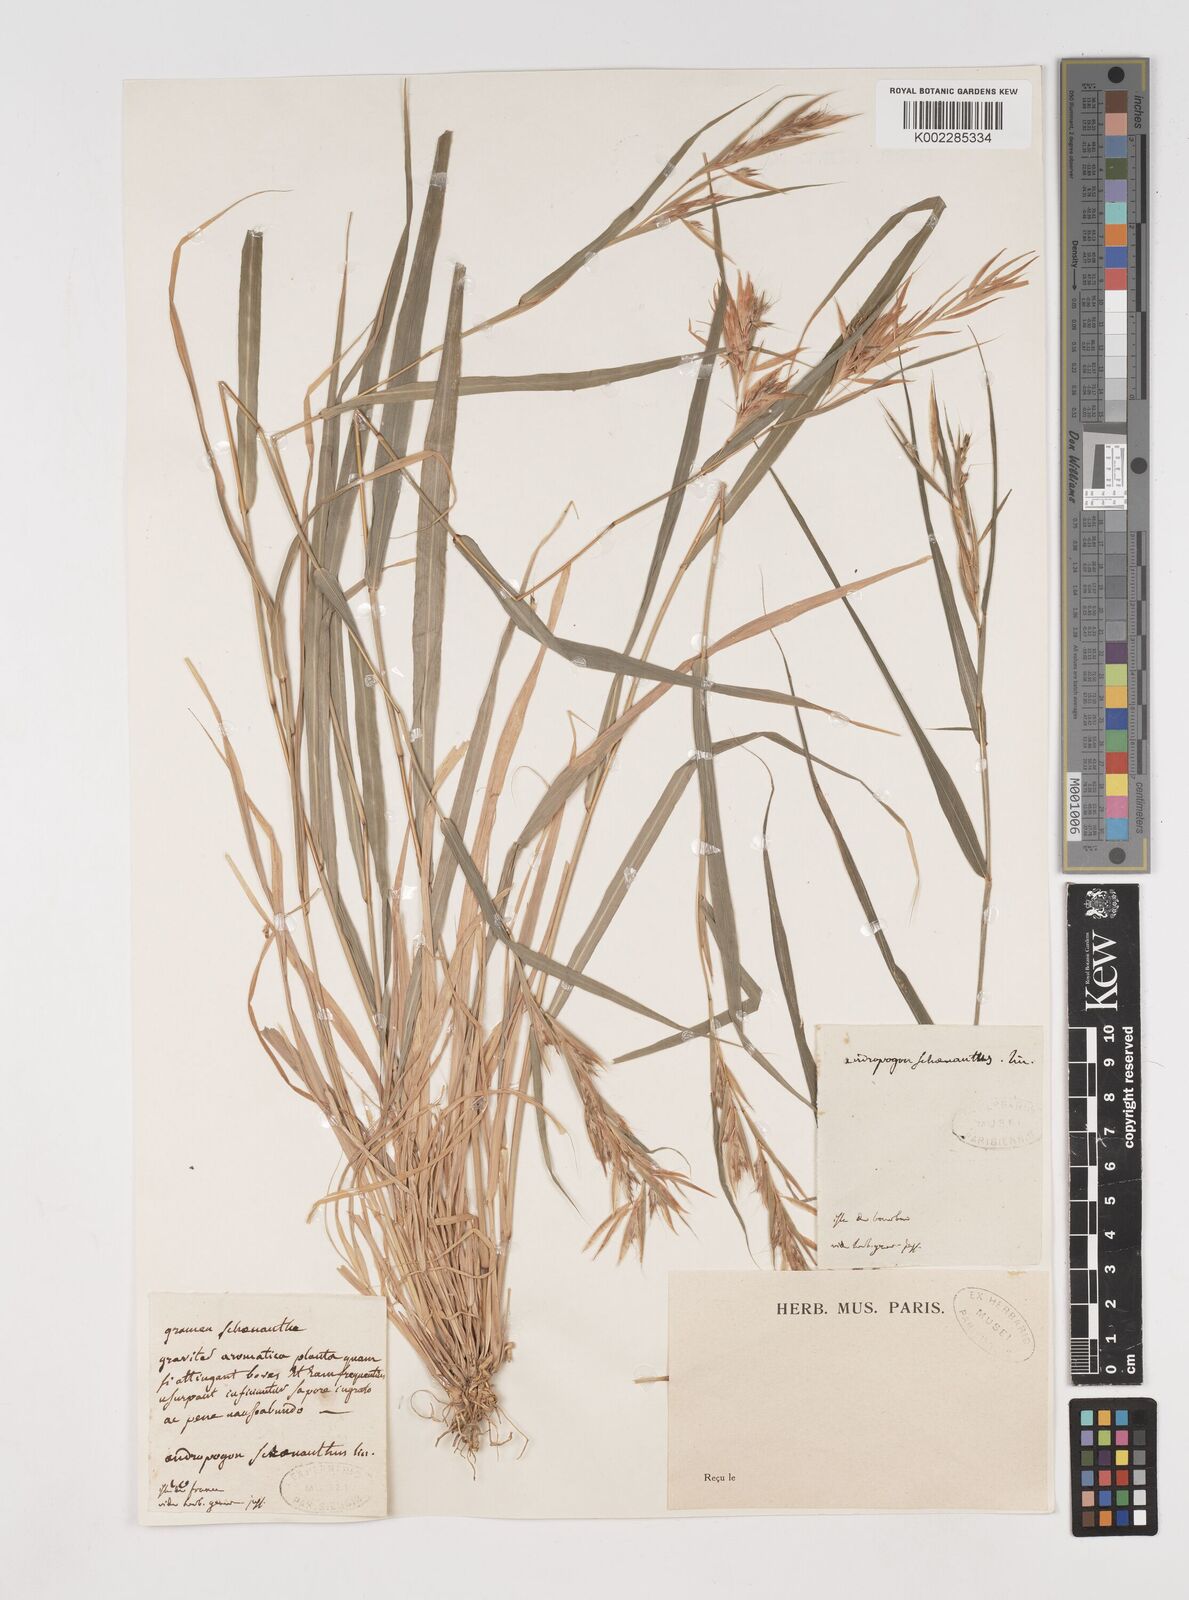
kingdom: Plantae
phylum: Tracheophyta
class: Liliopsida
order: Poales
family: Poaceae
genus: Cymbopogon
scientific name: Cymbopogon pruinosus
